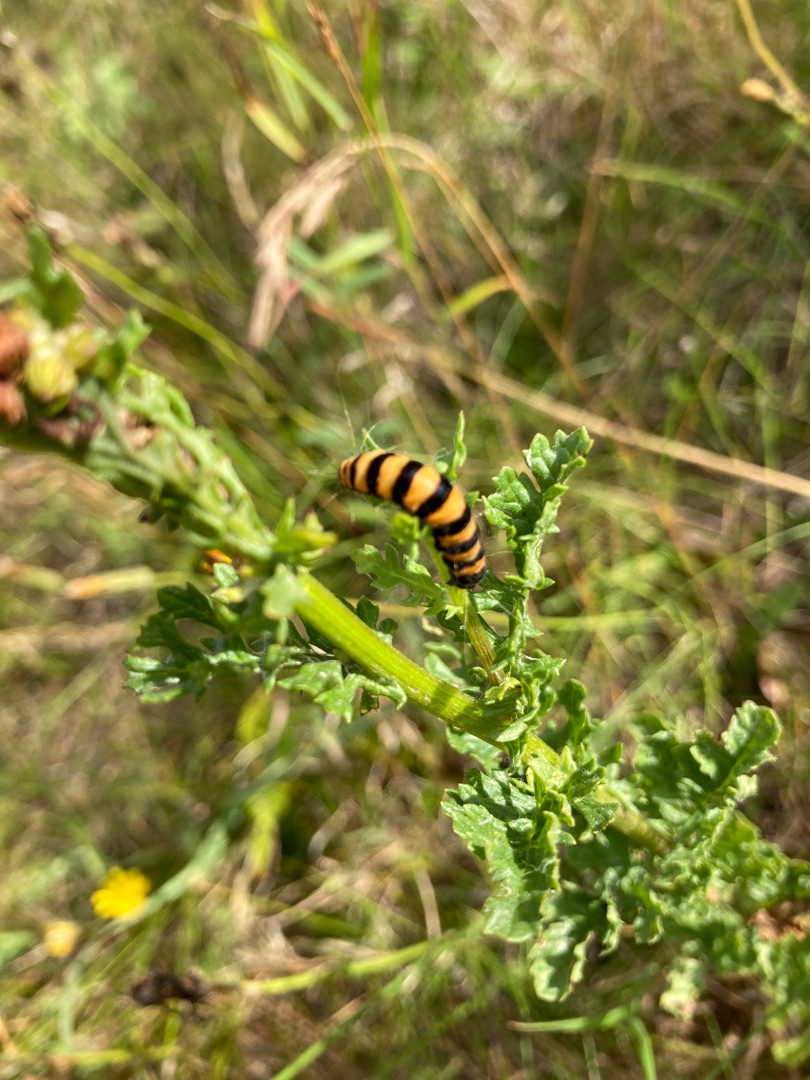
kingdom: Animalia
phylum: Arthropoda
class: Insecta
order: Lepidoptera
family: Erebidae
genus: Tyria
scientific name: Tyria jacobaeae
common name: Blodplet
